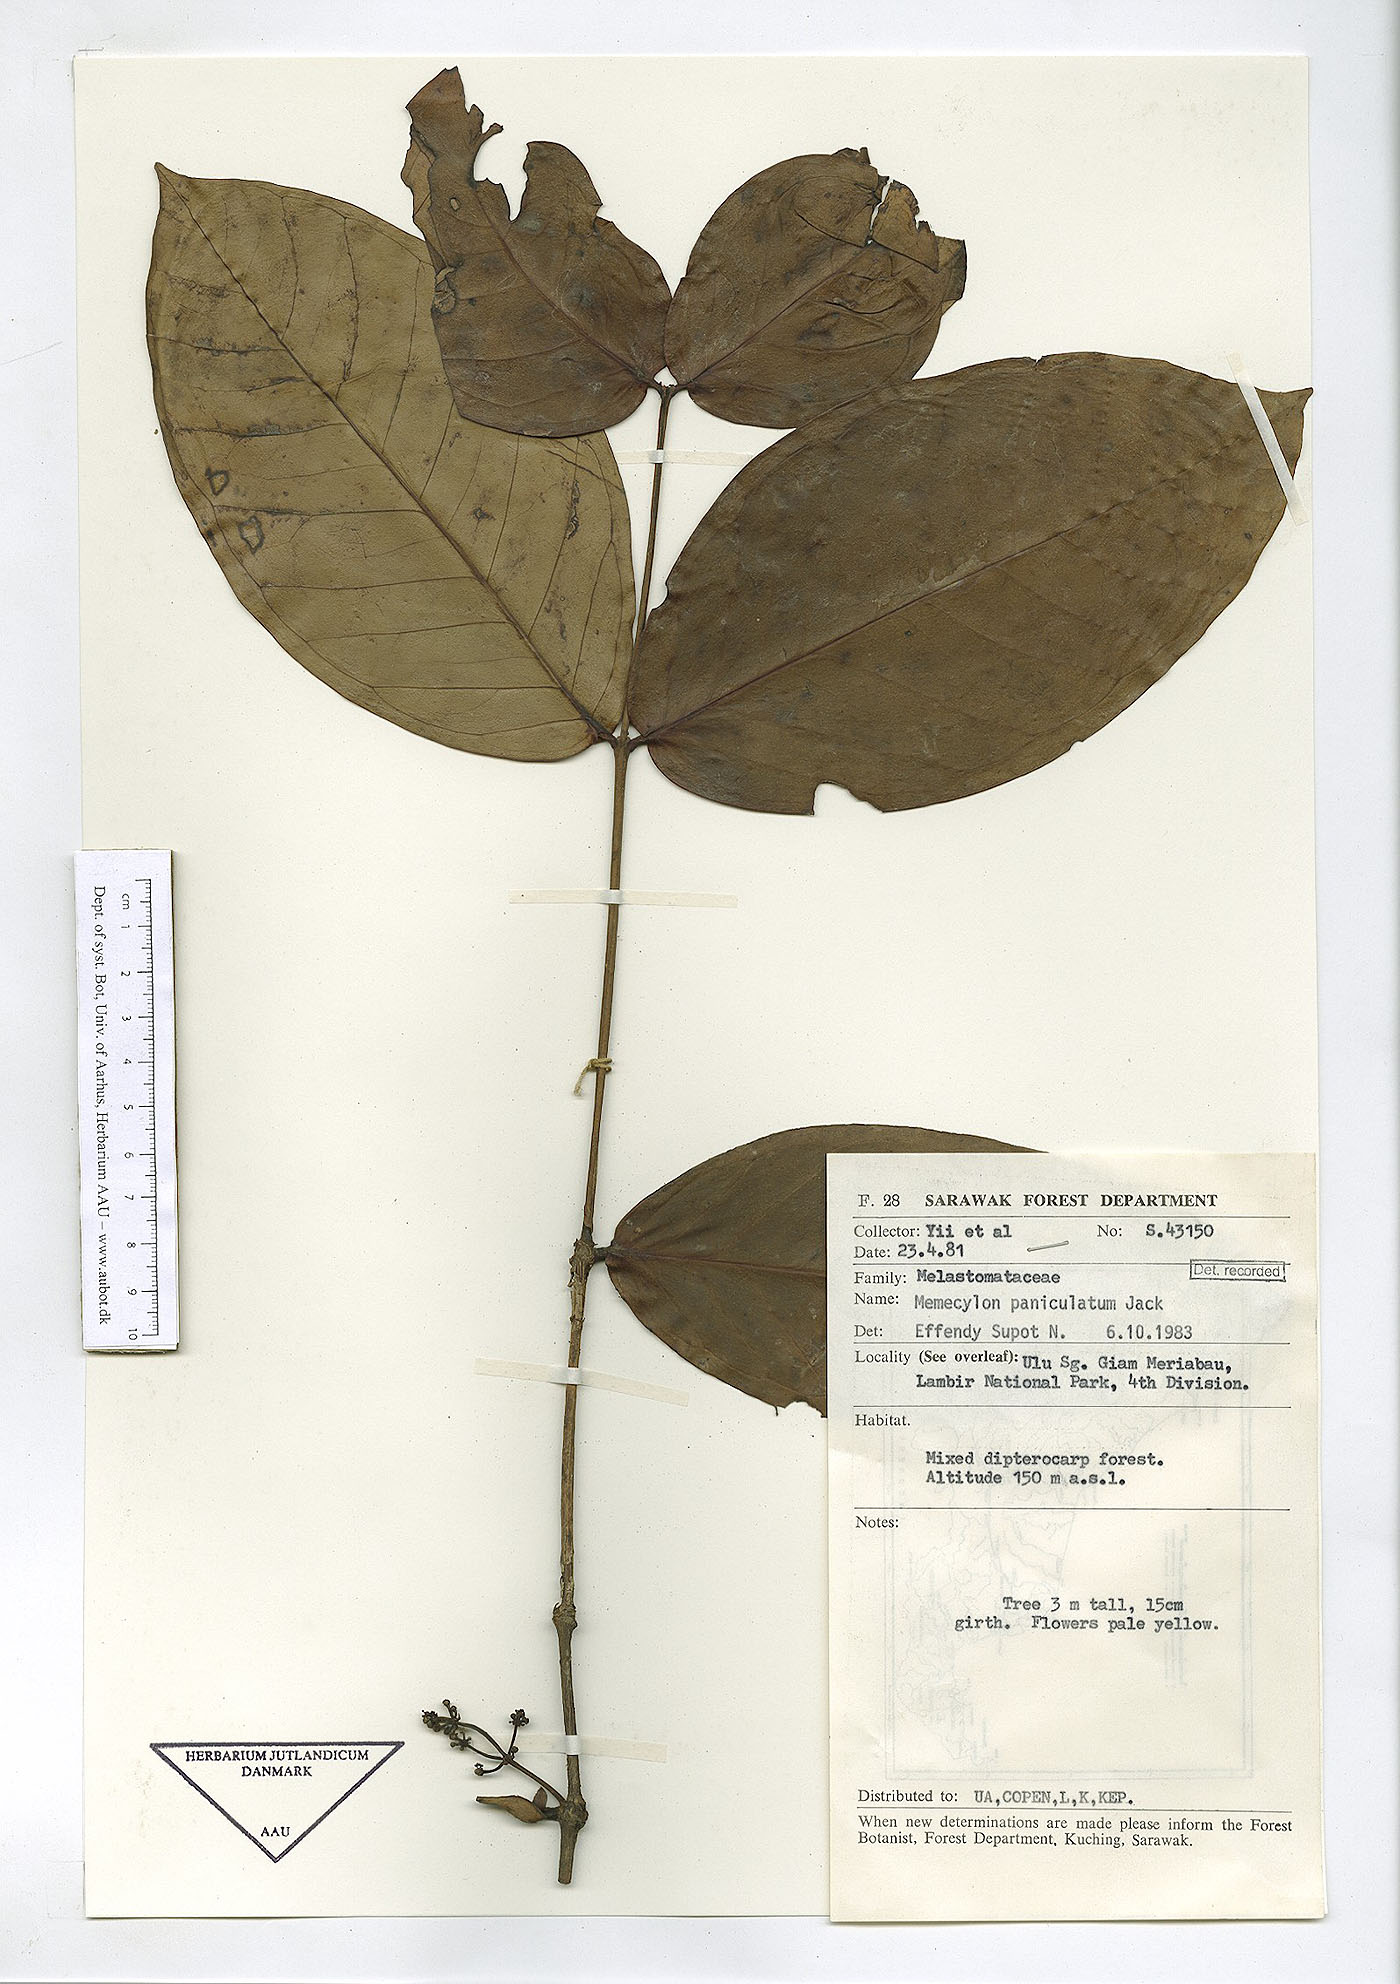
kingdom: Plantae
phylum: Tracheophyta
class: Magnoliopsida
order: Myrtales
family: Melastomataceae
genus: Memecylon
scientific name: Memecylon paniculatum
